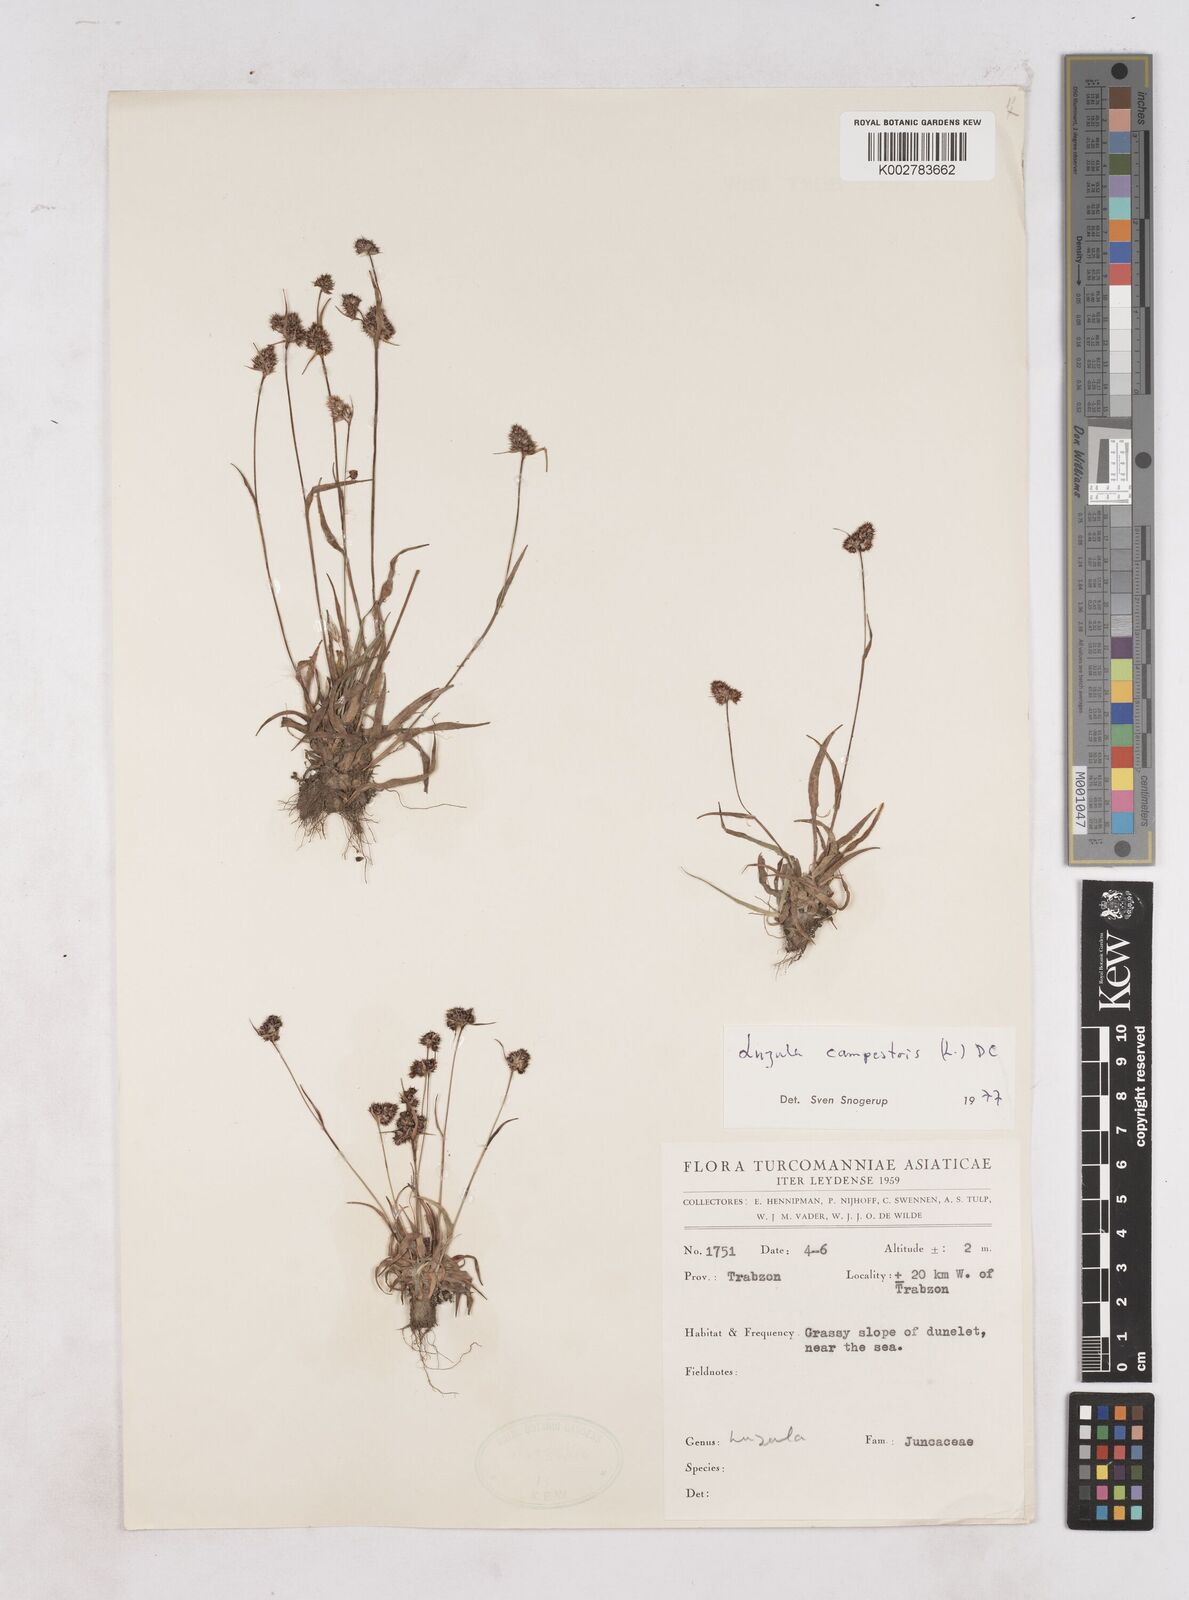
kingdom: Plantae
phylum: Tracheophyta
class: Liliopsida
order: Poales
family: Juncaceae
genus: Luzula
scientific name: Luzula campestris
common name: Field wood-rush
